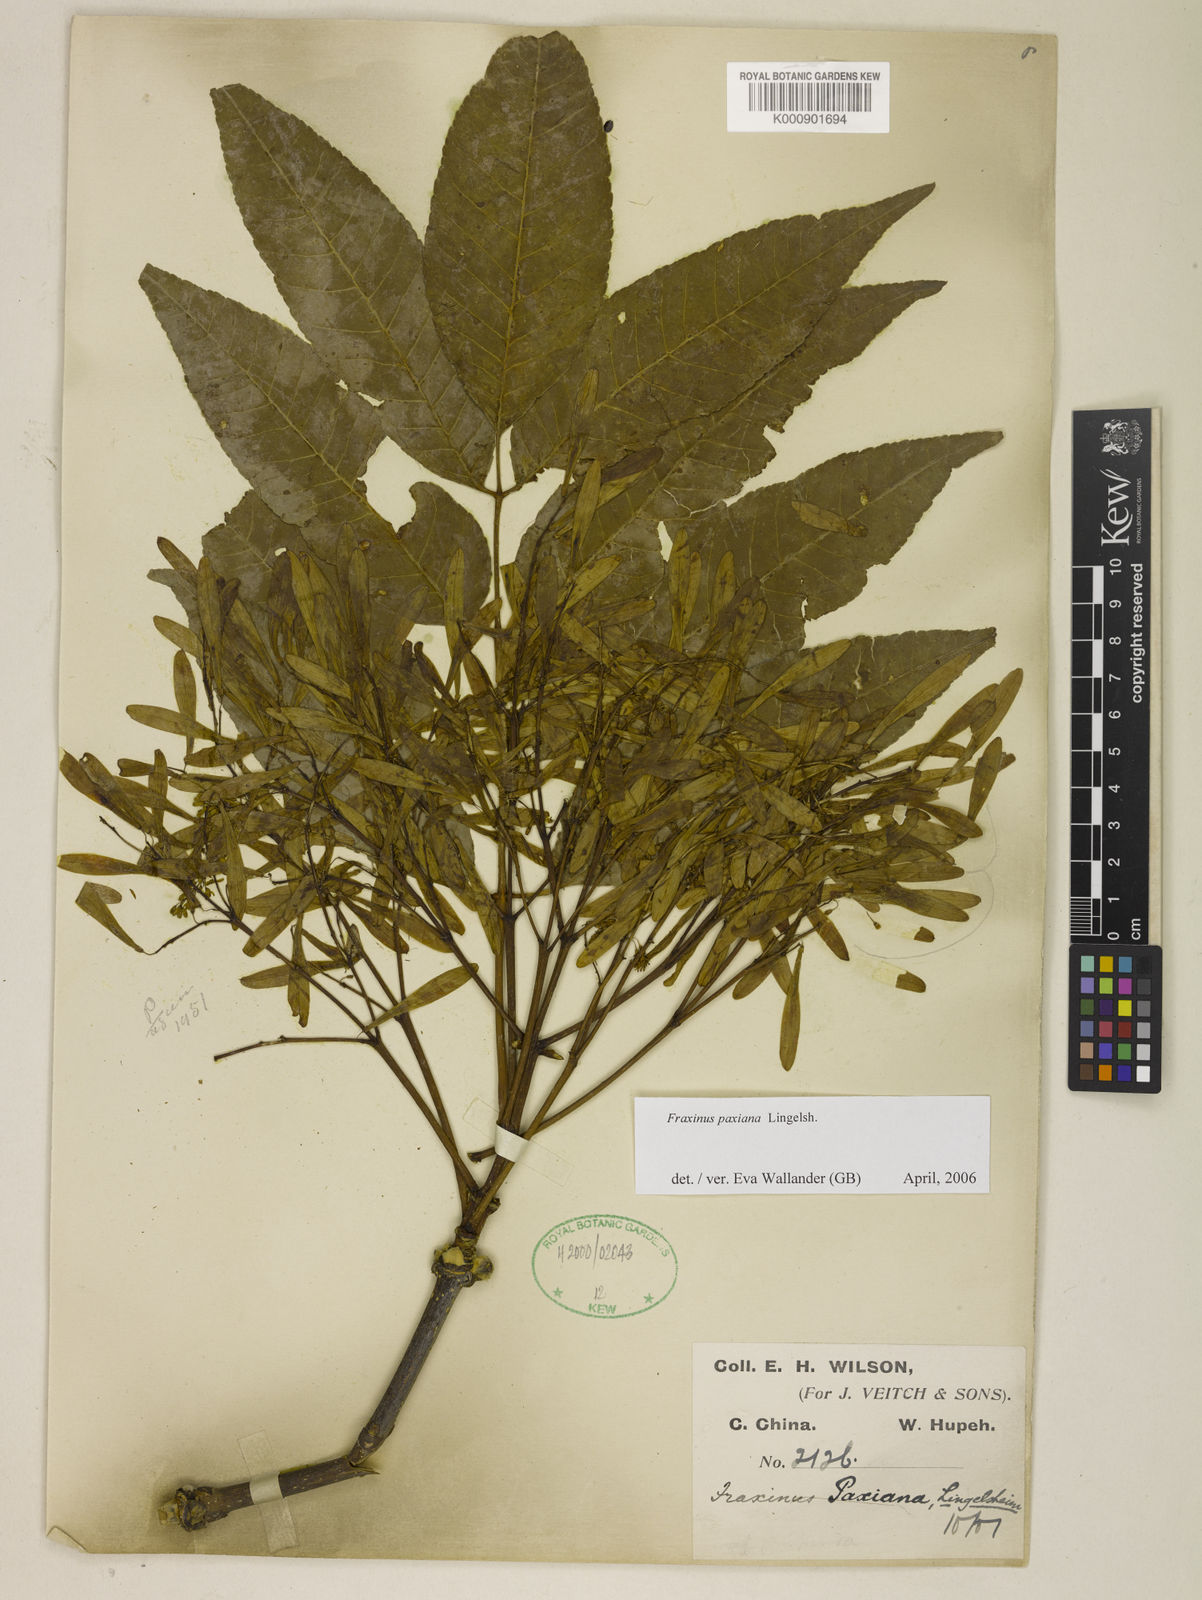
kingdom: Plantae
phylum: Tracheophyta
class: Magnoliopsida
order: Lamiales
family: Oleaceae
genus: Fraxinus
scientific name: Fraxinus paxiana
